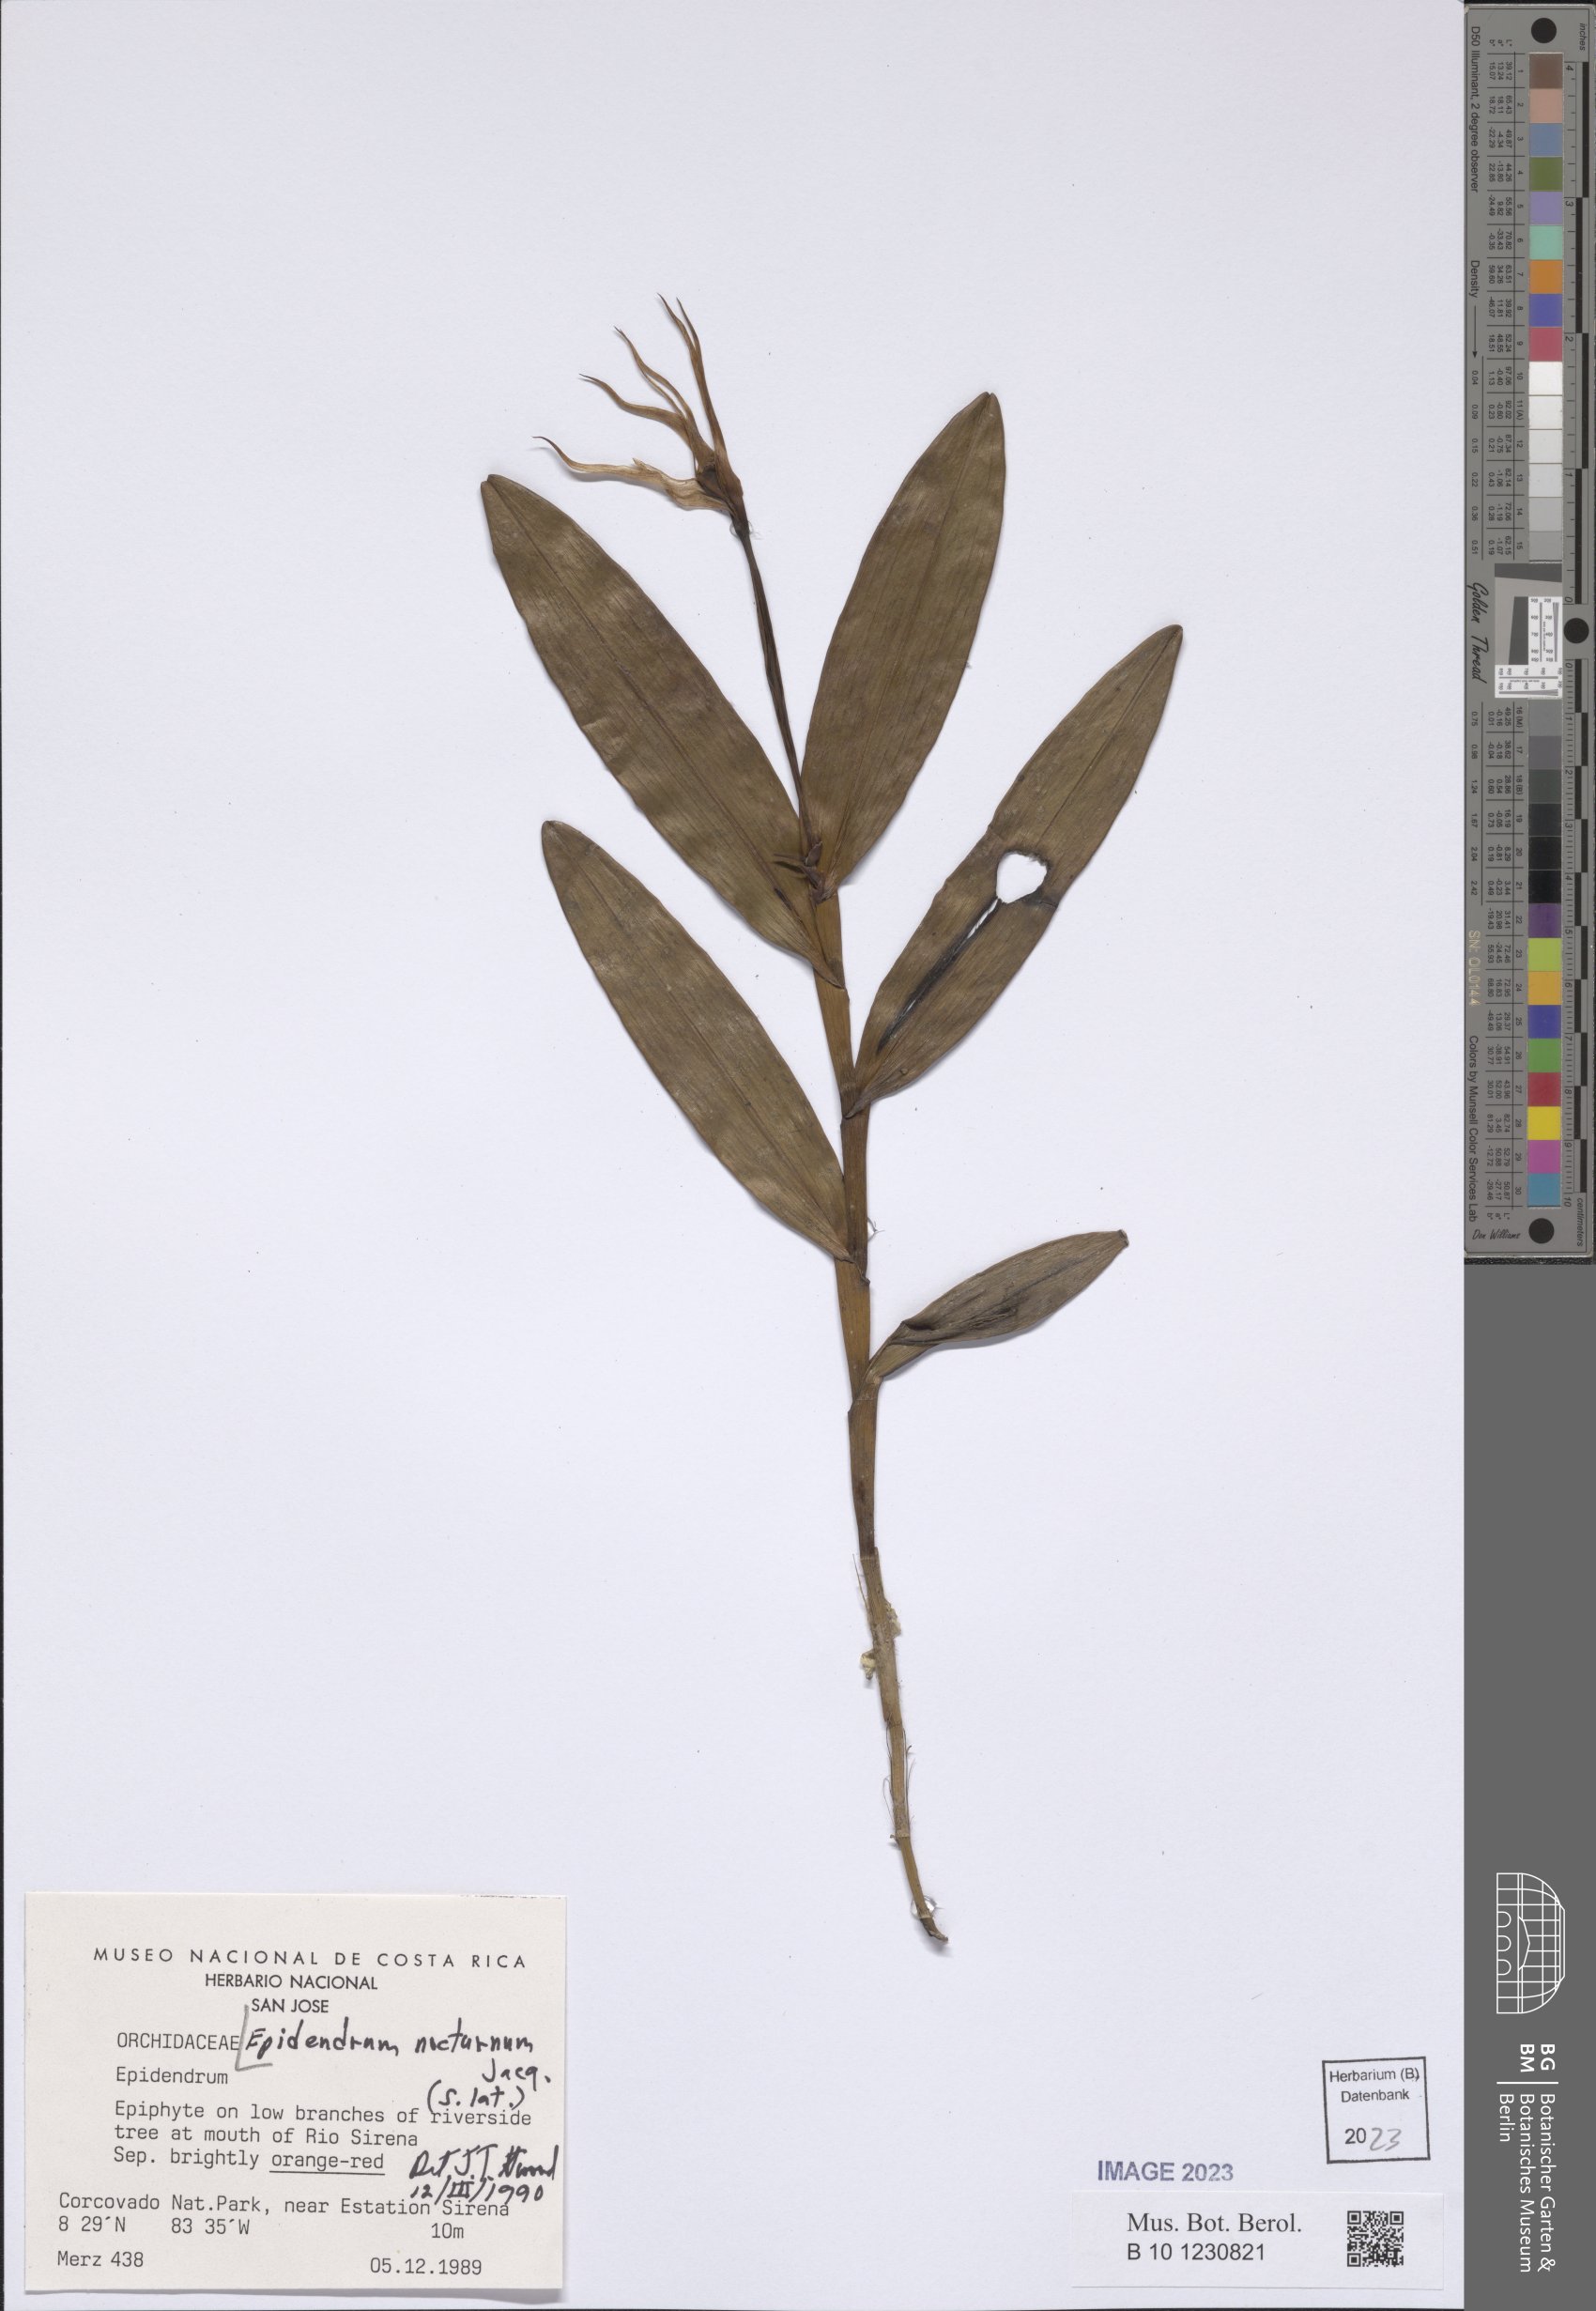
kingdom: Plantae
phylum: Tracheophyta
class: Liliopsida
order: Asparagales
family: Orchidaceae
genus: Epidendrum
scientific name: Epidendrum nocturnum
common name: Night scented orchid
